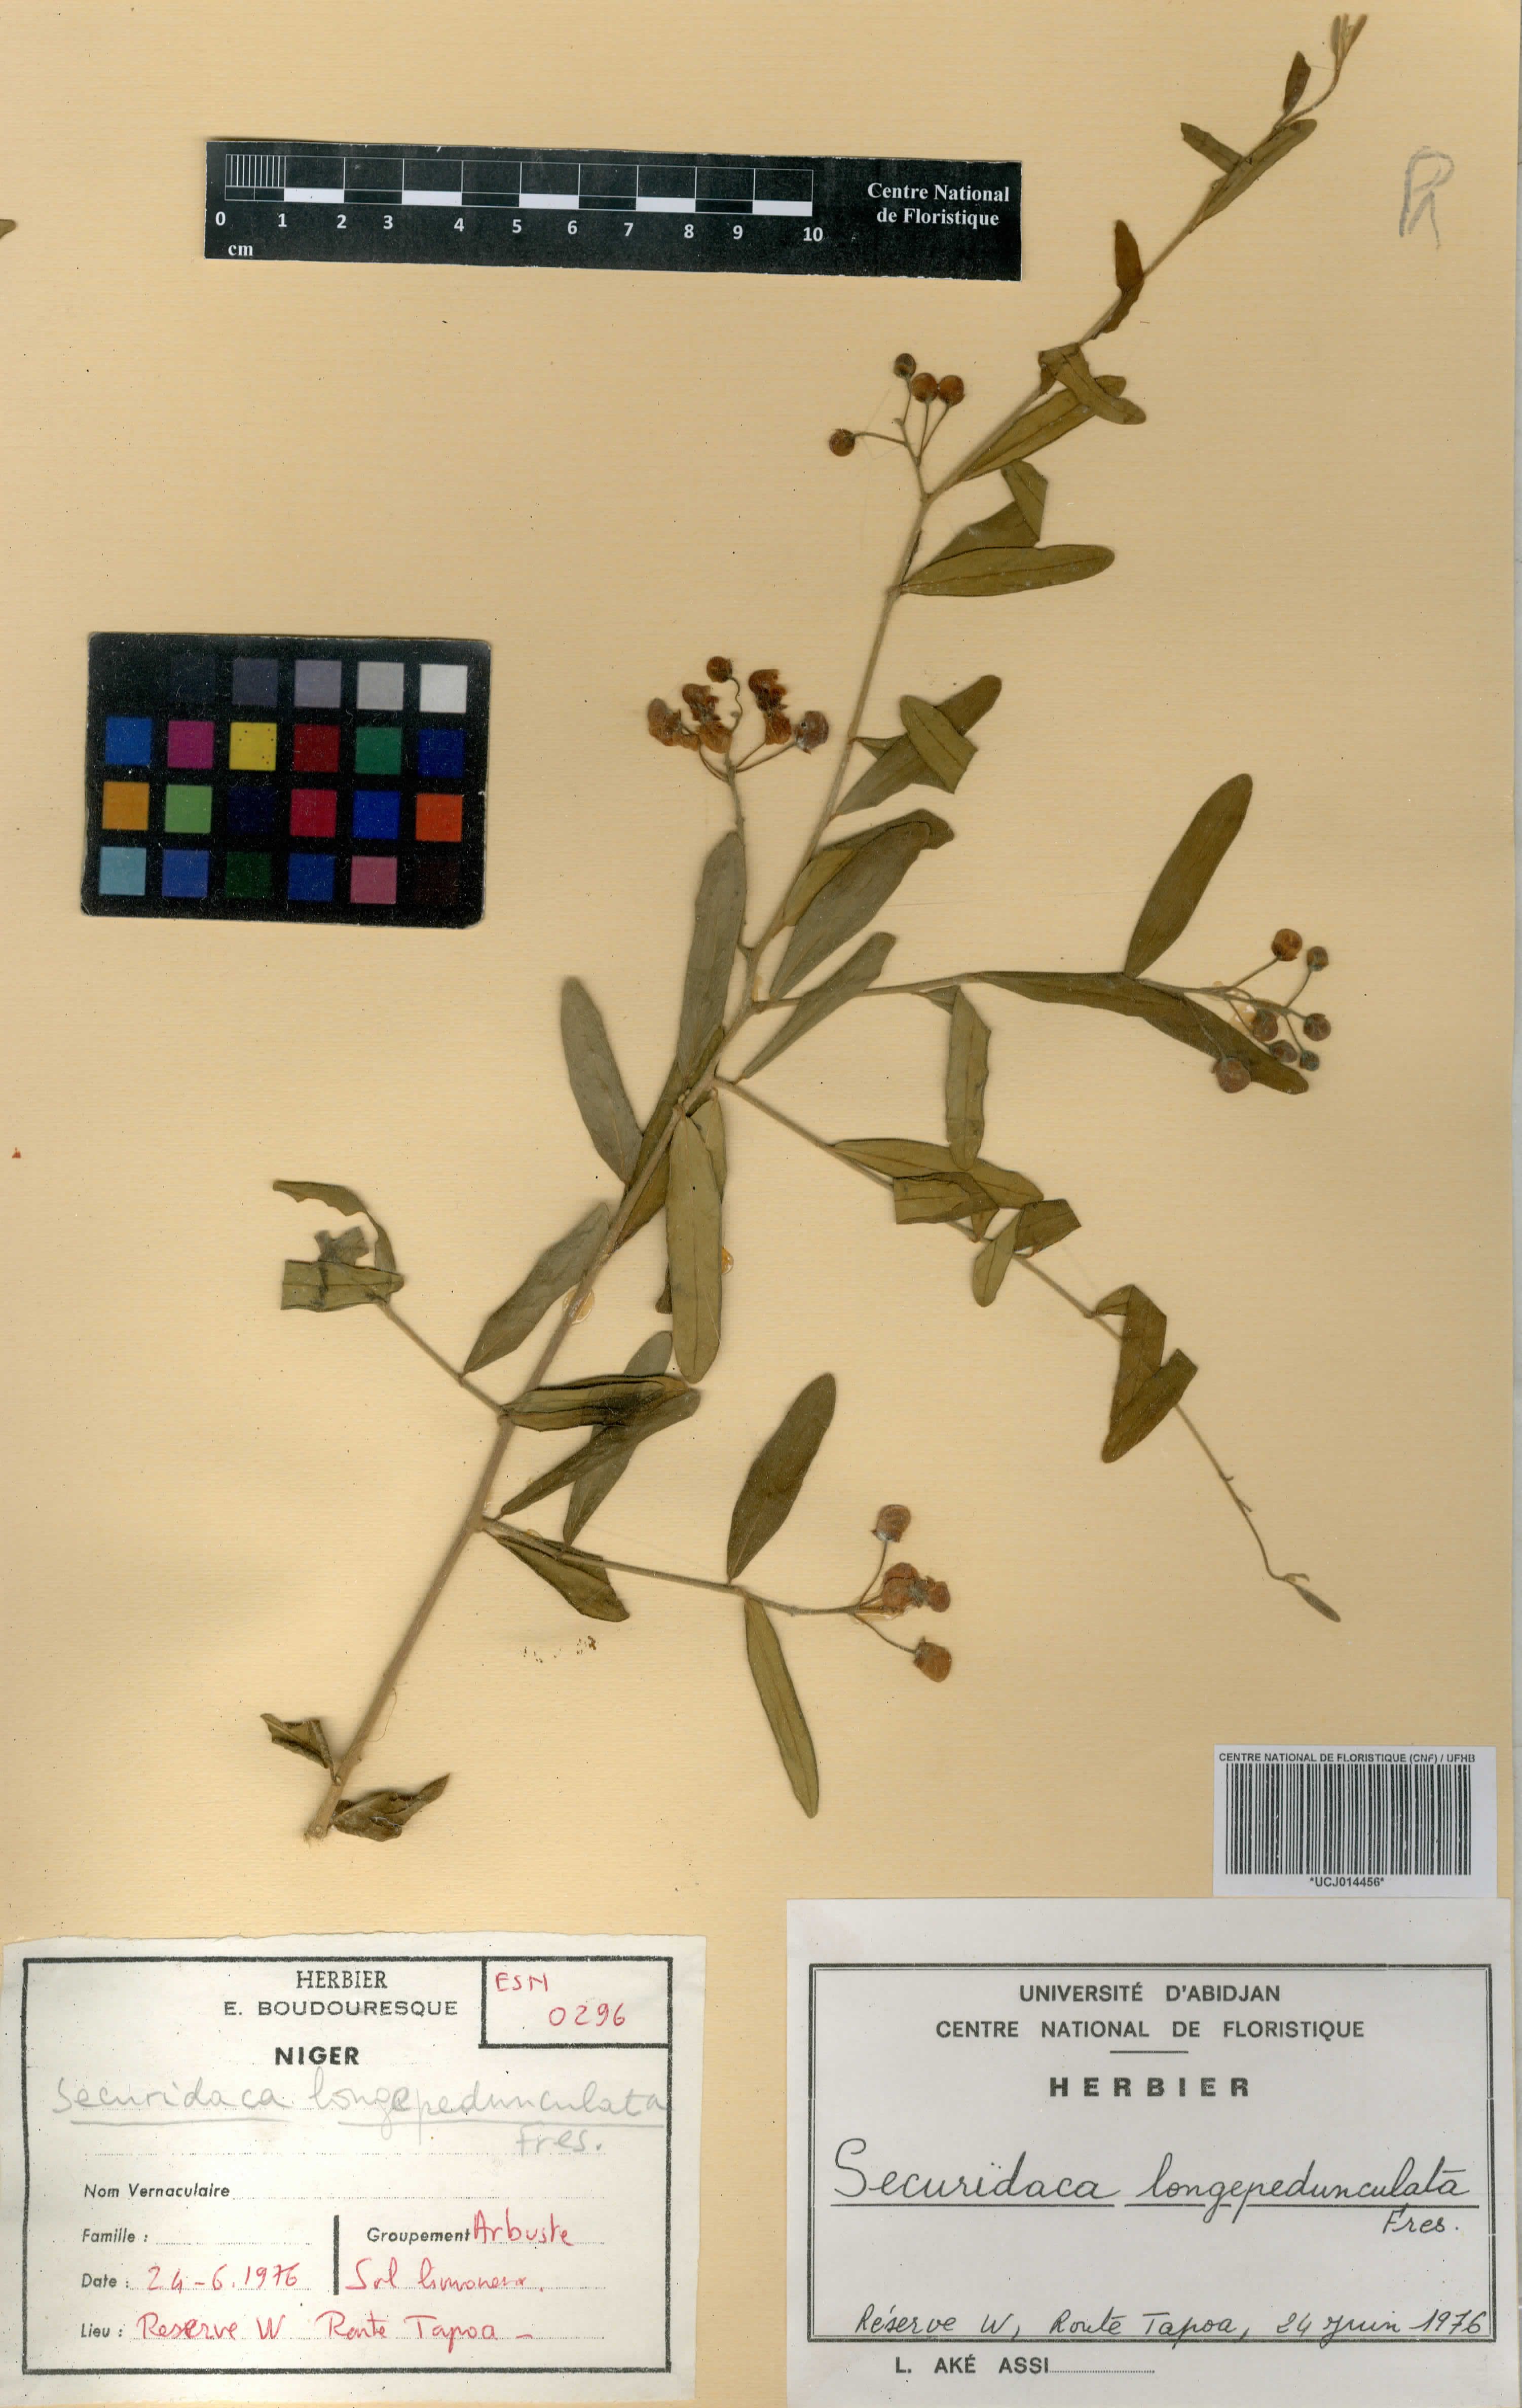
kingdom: Plantae
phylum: Tracheophyta
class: Magnoliopsida
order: Fabales
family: Polygalaceae
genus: Securidaca
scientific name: Securidaca longepedunculata
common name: Violet tree
